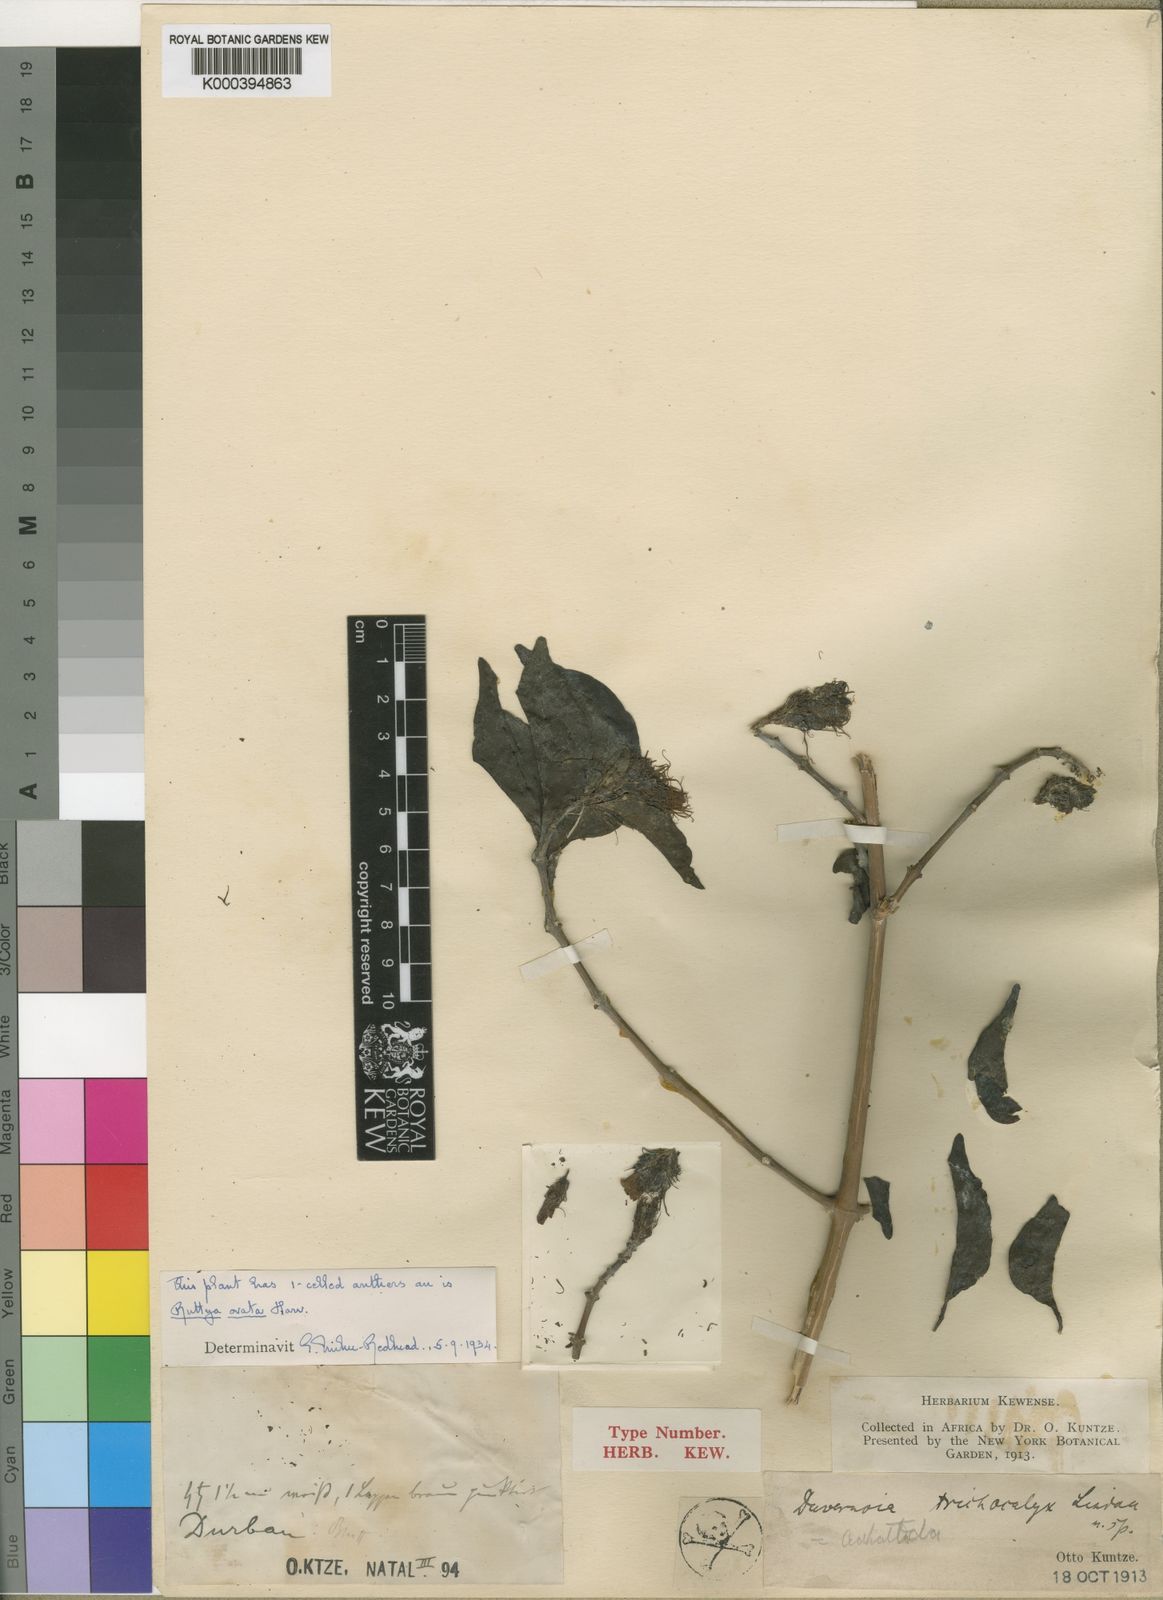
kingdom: Plantae
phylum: Tracheophyta
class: Magnoliopsida
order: Lamiales
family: Acanthaceae
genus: Ruttya
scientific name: Ruttya ovata
